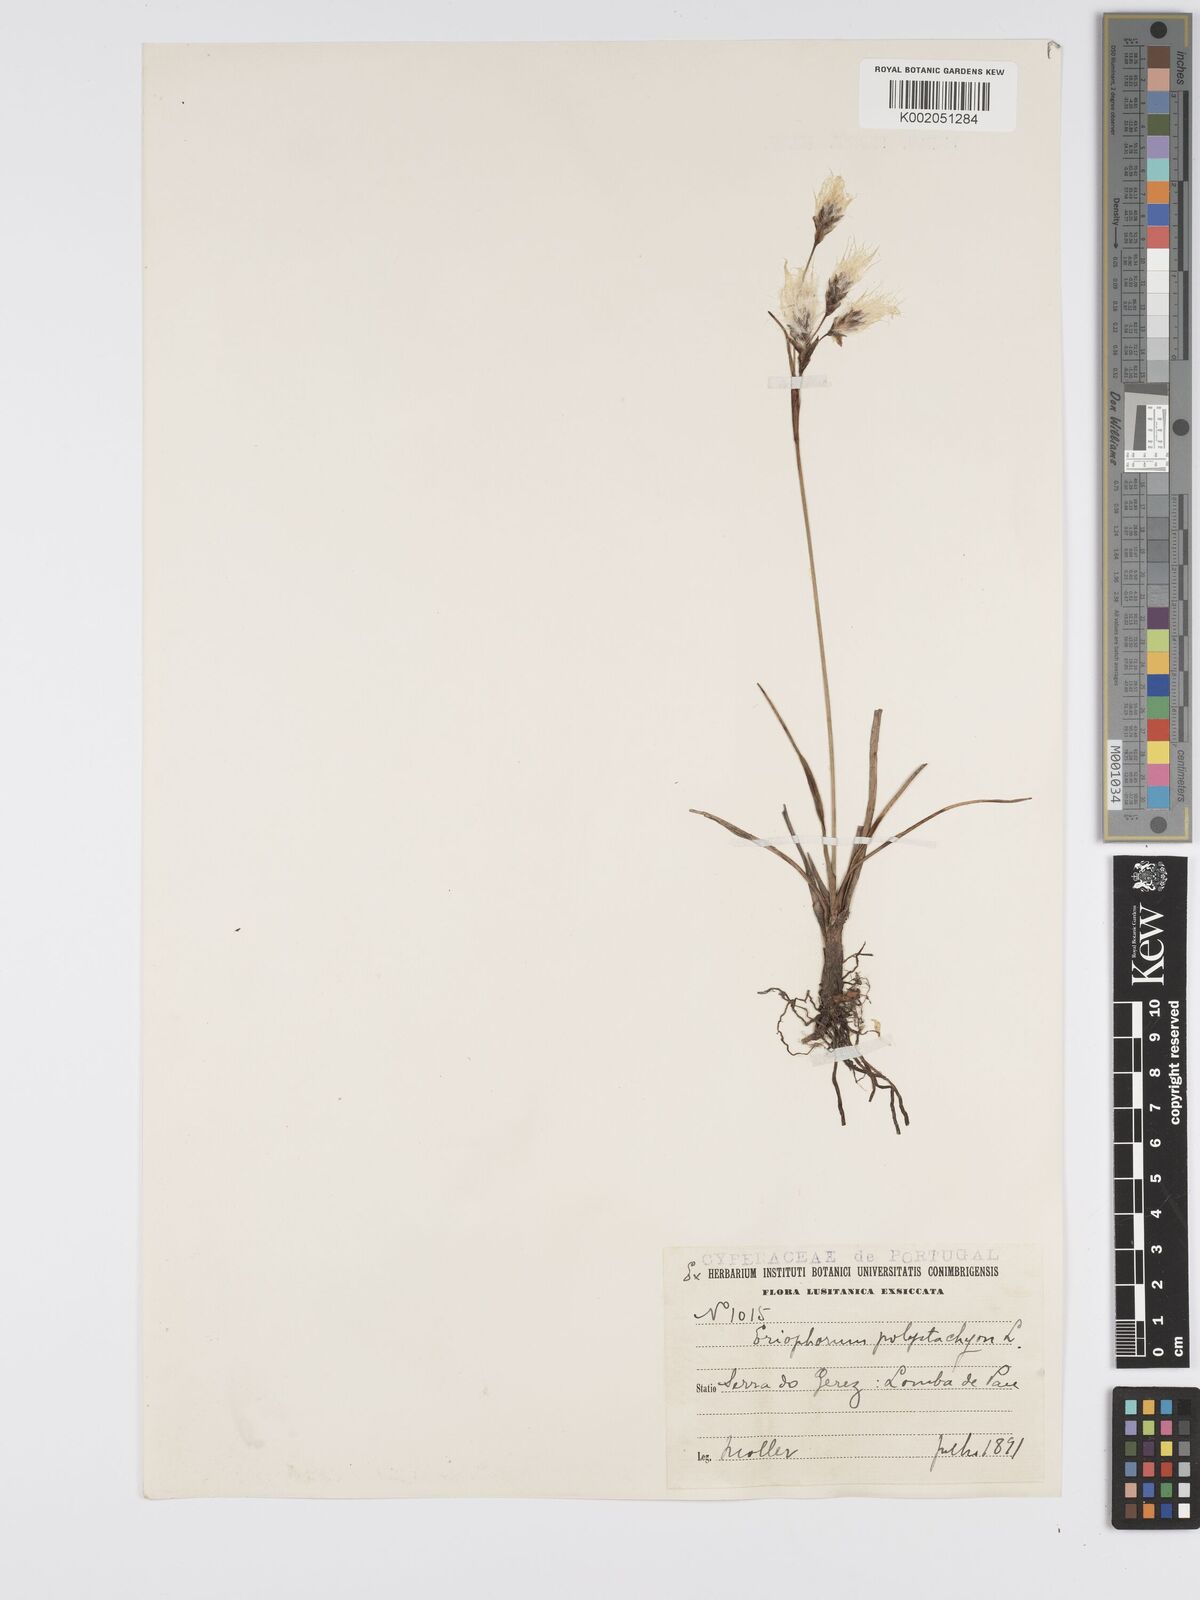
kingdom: Plantae
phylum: Tracheophyta
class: Liliopsida
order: Poales
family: Cyperaceae
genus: Eriophorum
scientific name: Eriophorum latifolium
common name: Broad-leaved cottongrass
